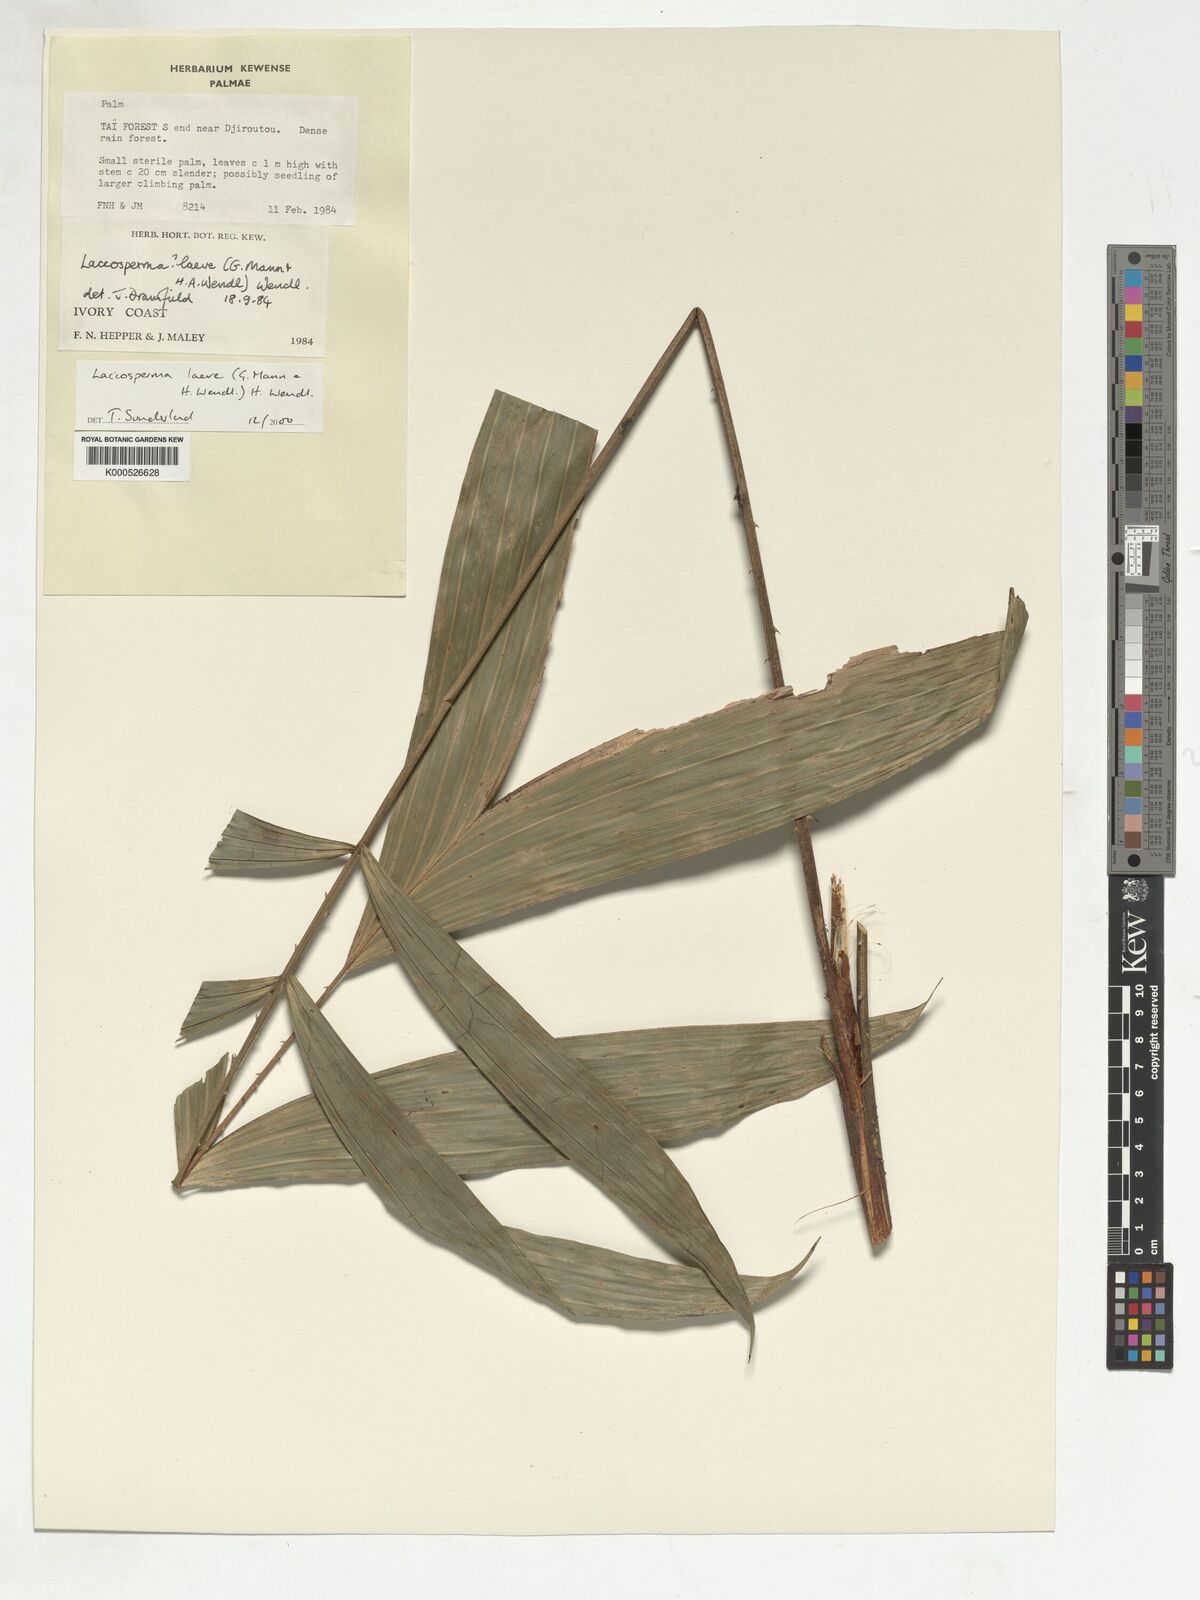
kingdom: Plantae
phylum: Tracheophyta
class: Liliopsida
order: Arecales
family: Arecaceae
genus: Laccosperma
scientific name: Laccosperma
